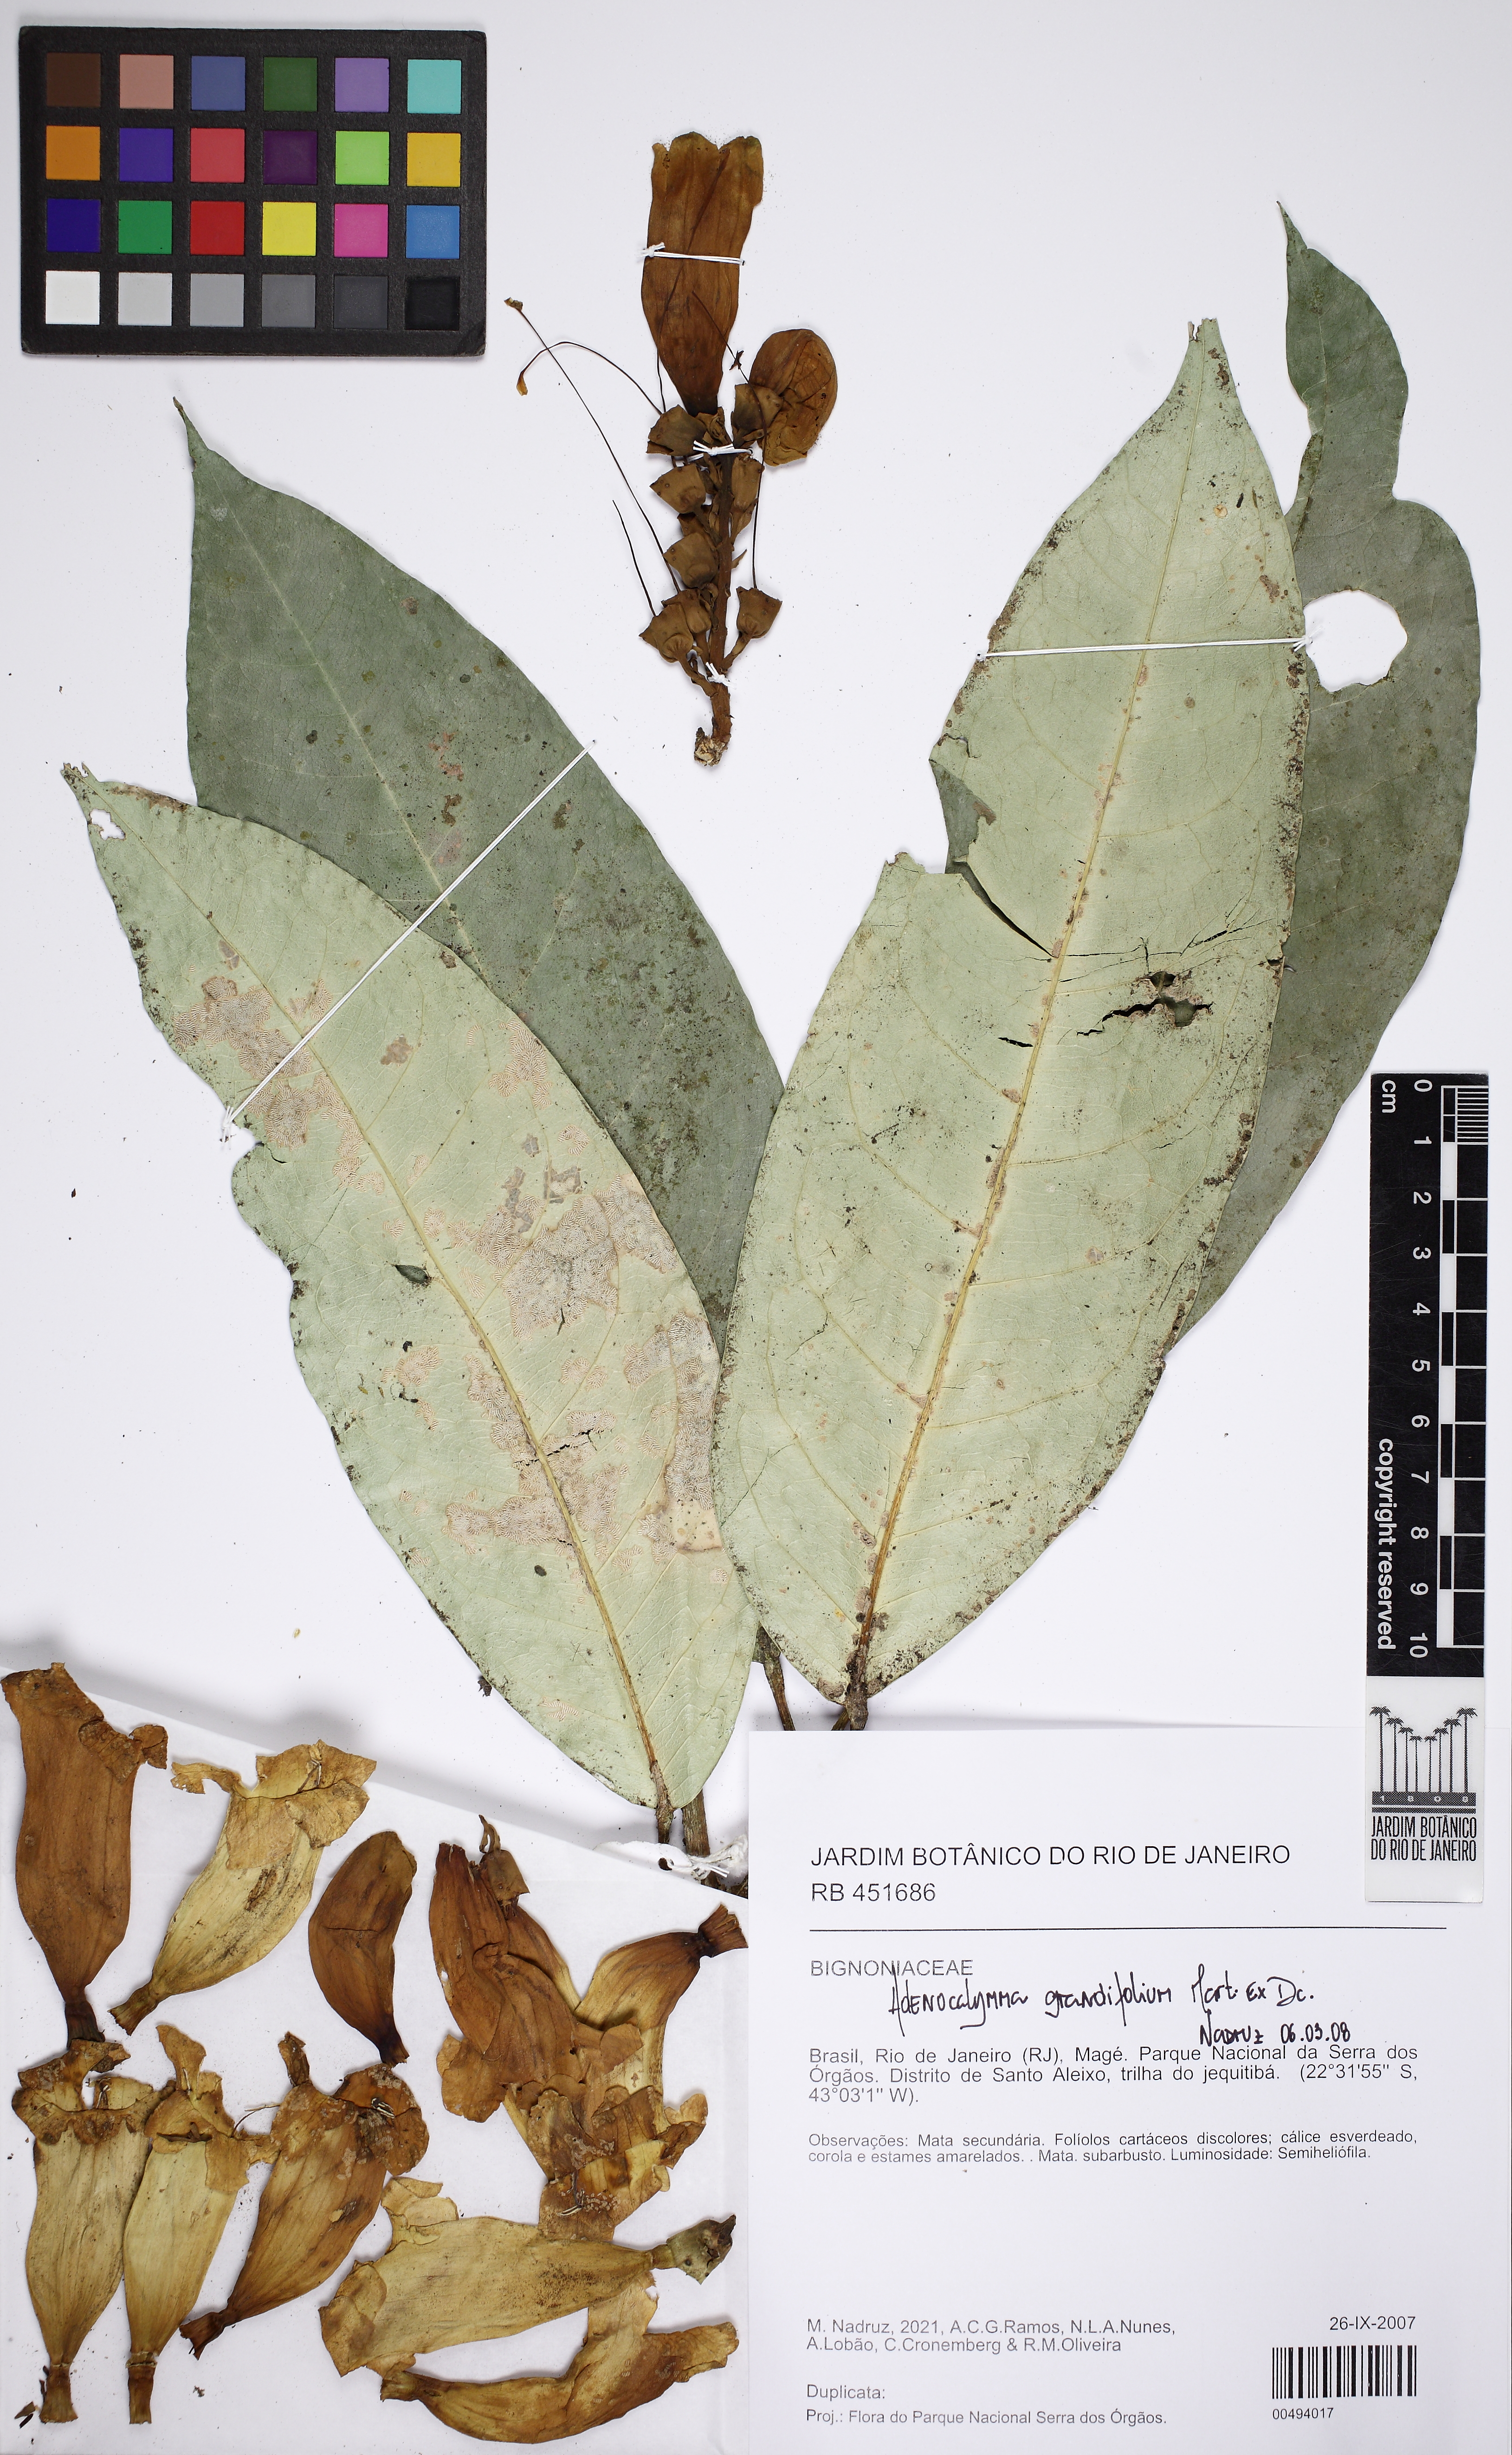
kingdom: Plantae
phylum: Tracheophyta
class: Magnoliopsida
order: Lamiales
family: Bignoniaceae
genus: Adenocalymma
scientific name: Adenocalymma ternatum
